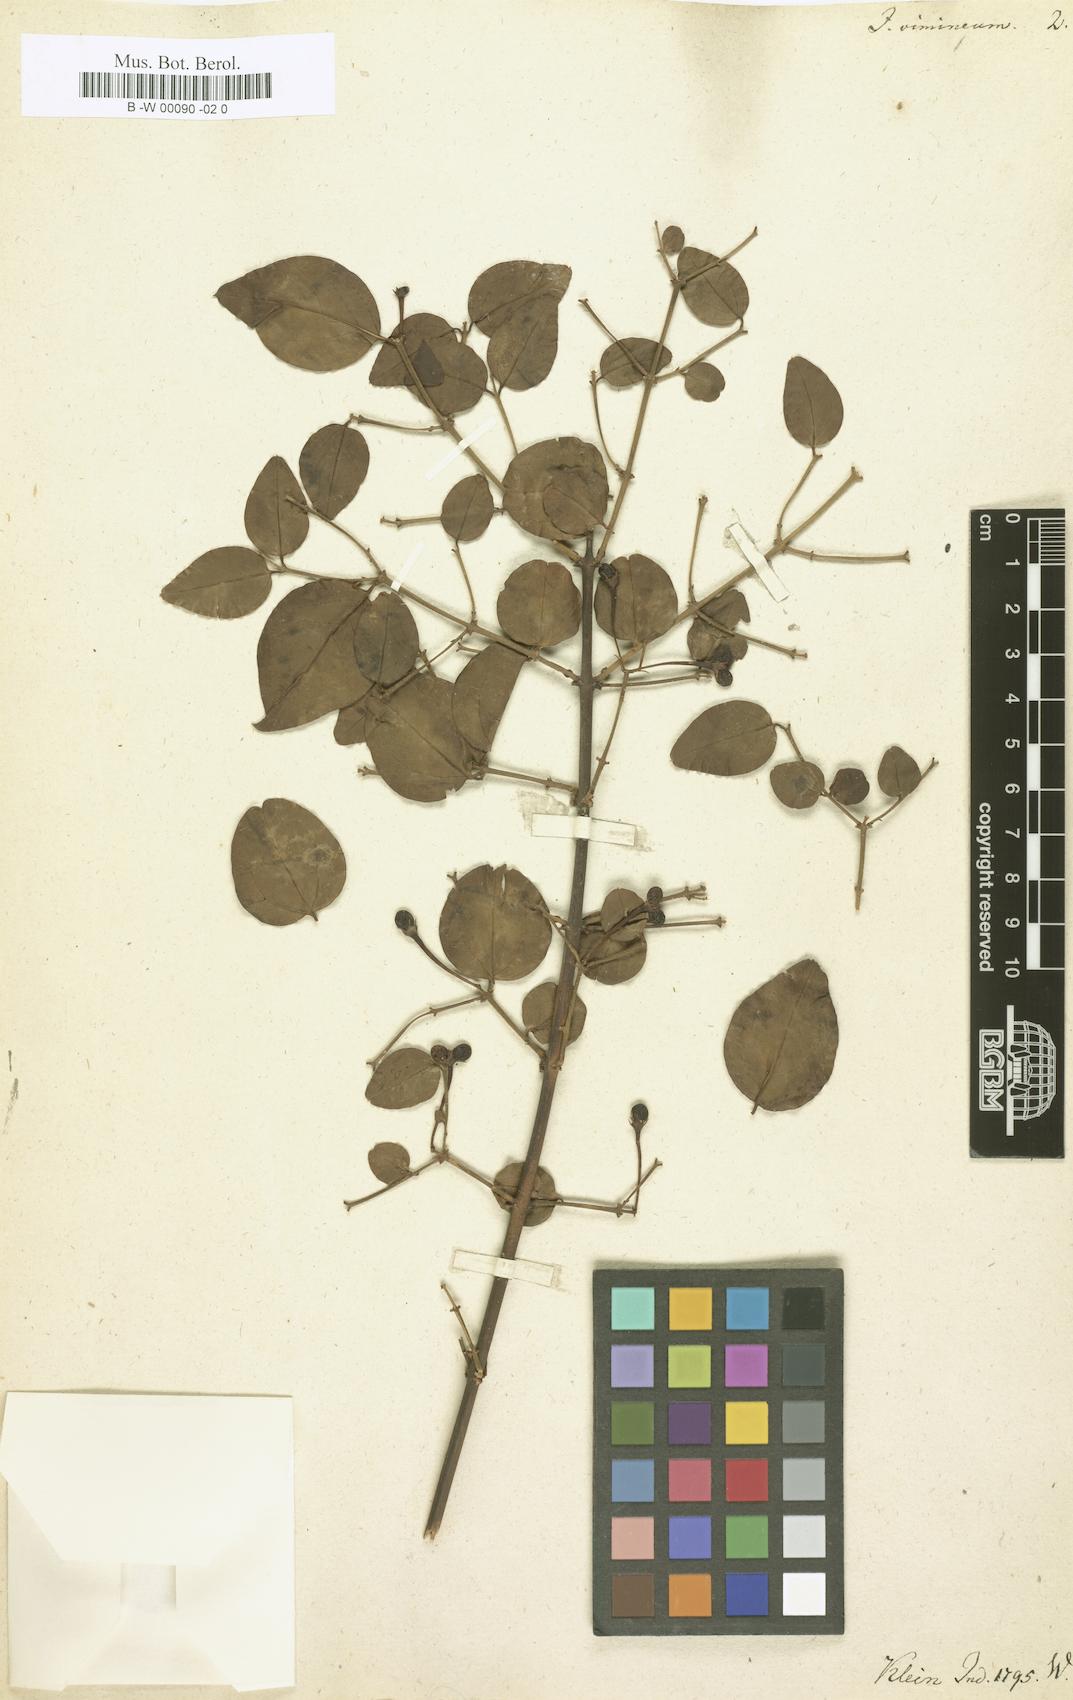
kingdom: Plantae
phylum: Tracheophyta
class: Magnoliopsida
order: Lamiales
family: Oleaceae
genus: Jasminum
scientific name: Jasminum angustifolium
